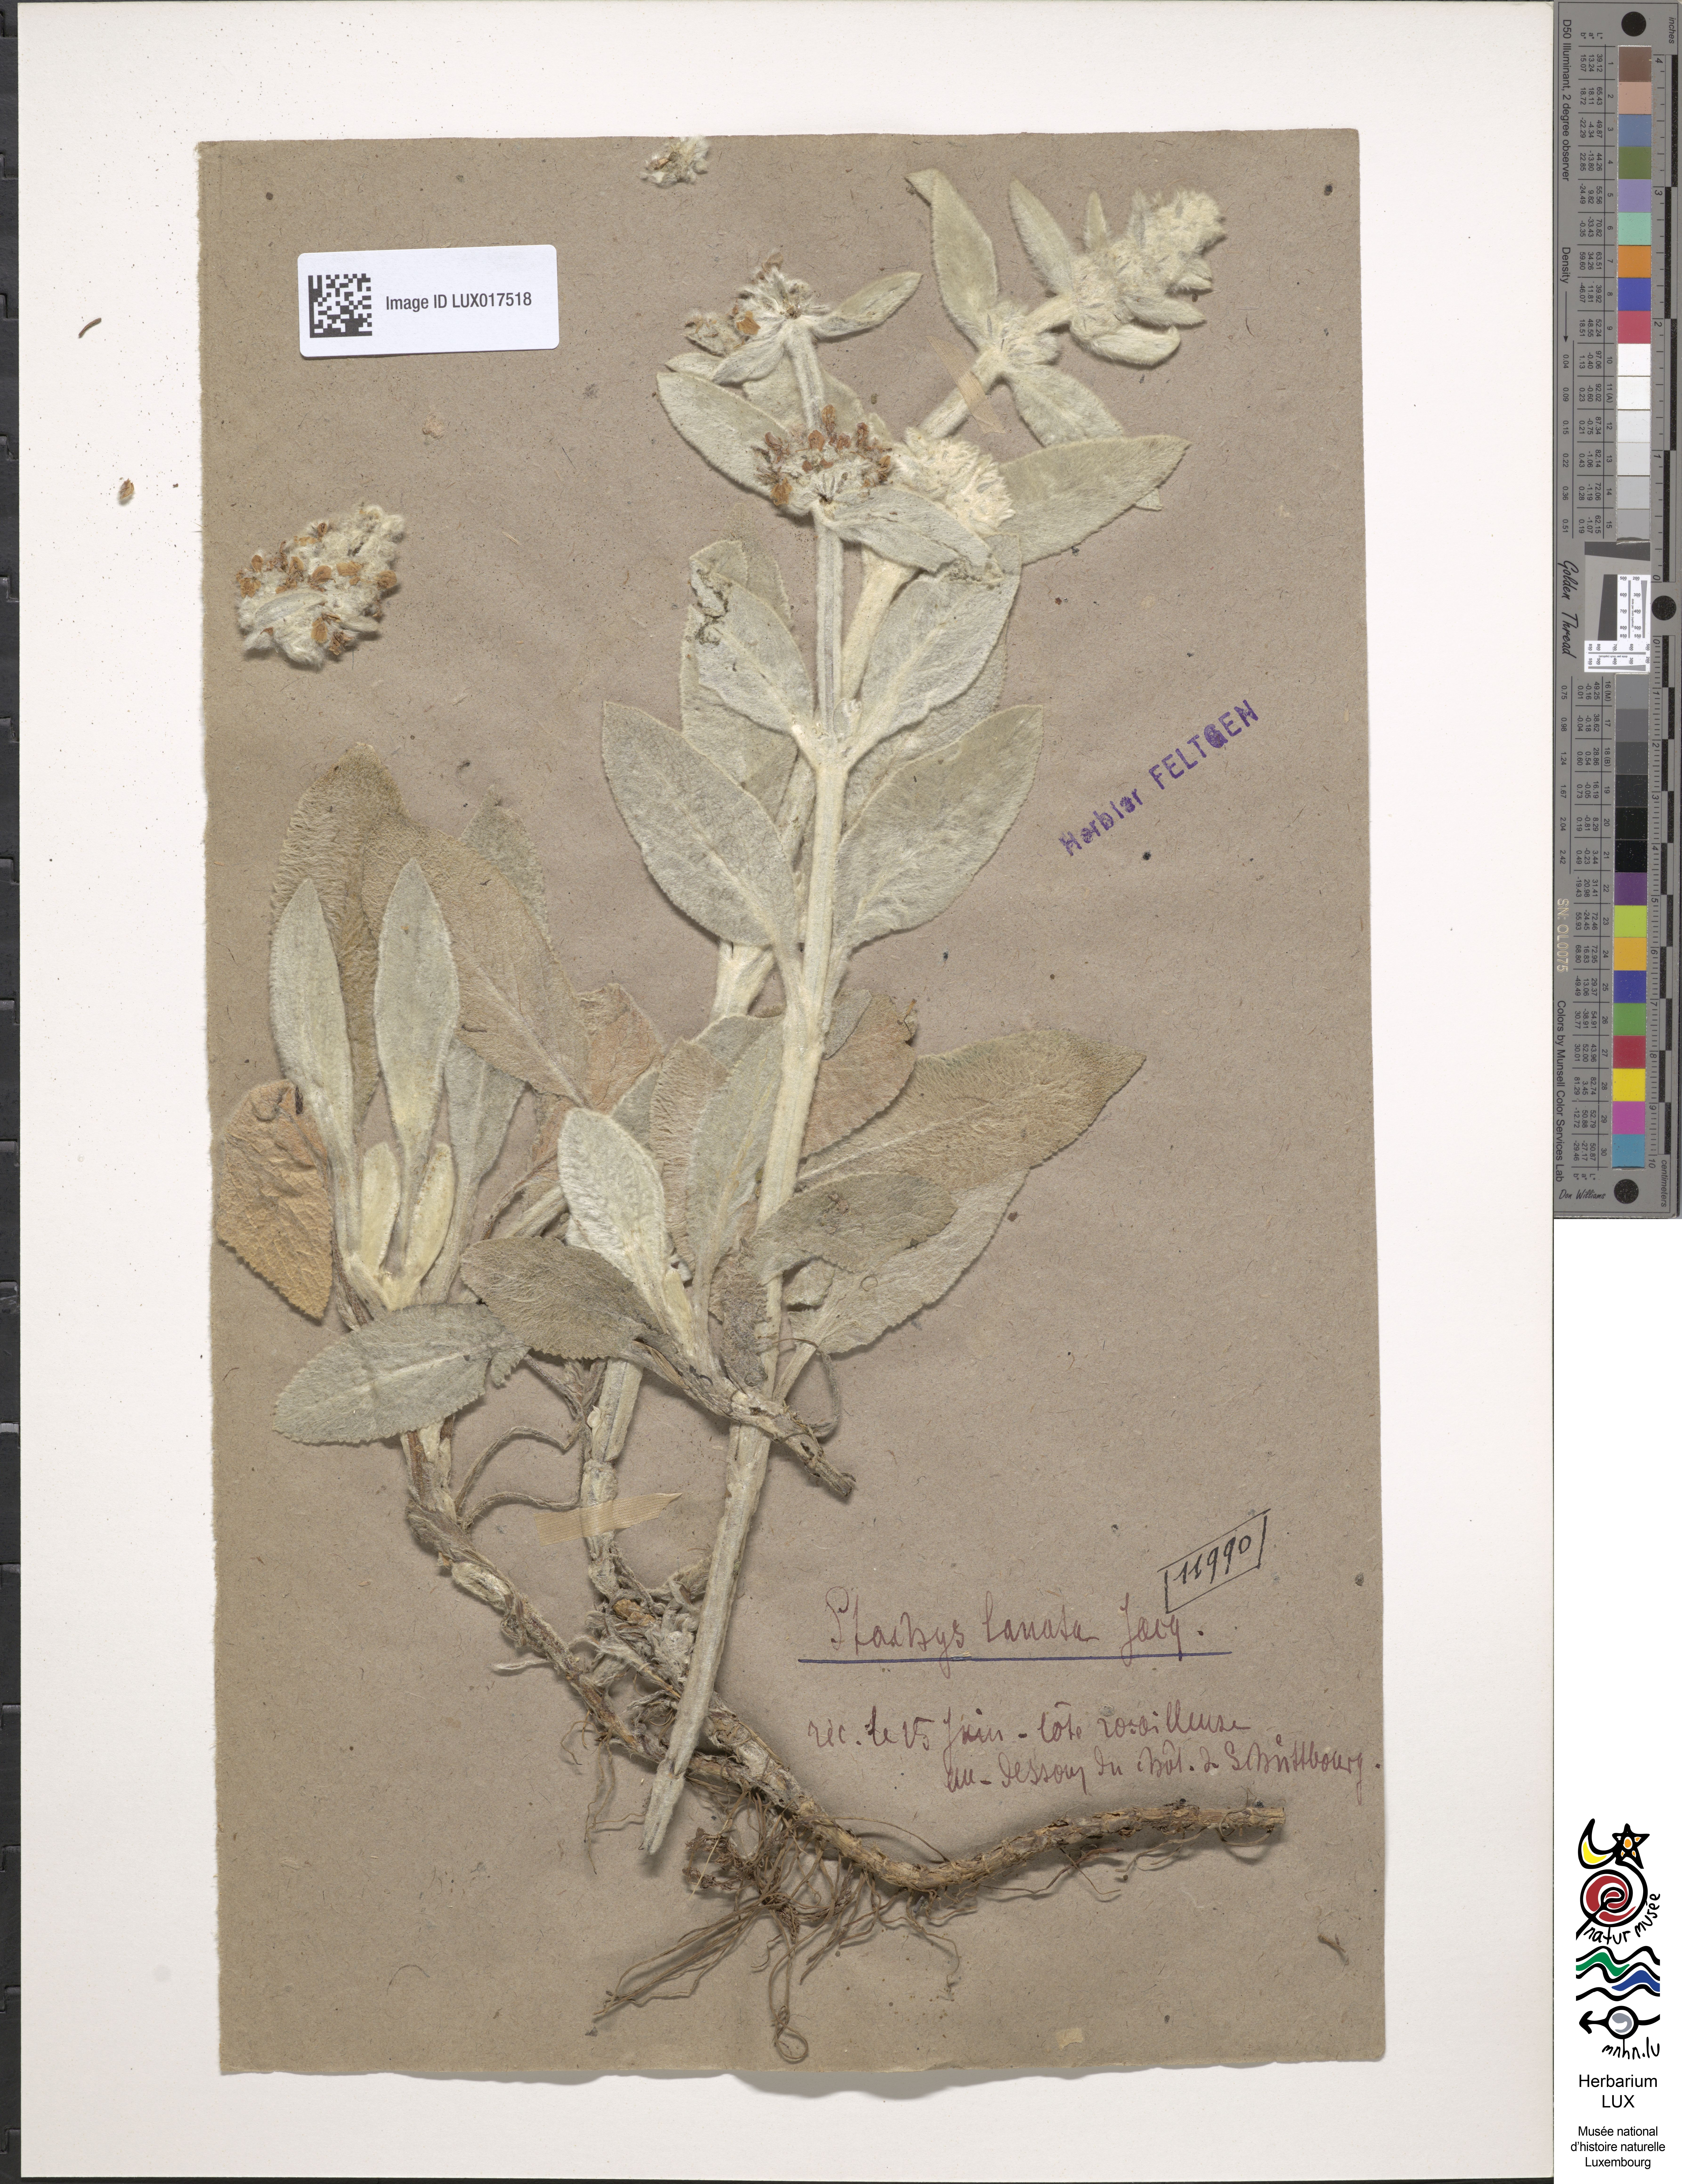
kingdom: Plantae
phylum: Tracheophyta
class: Magnoliopsida
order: Lamiales
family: Lamiaceae
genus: Stachys
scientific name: Stachys byzantina
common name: Lamb's-ear
